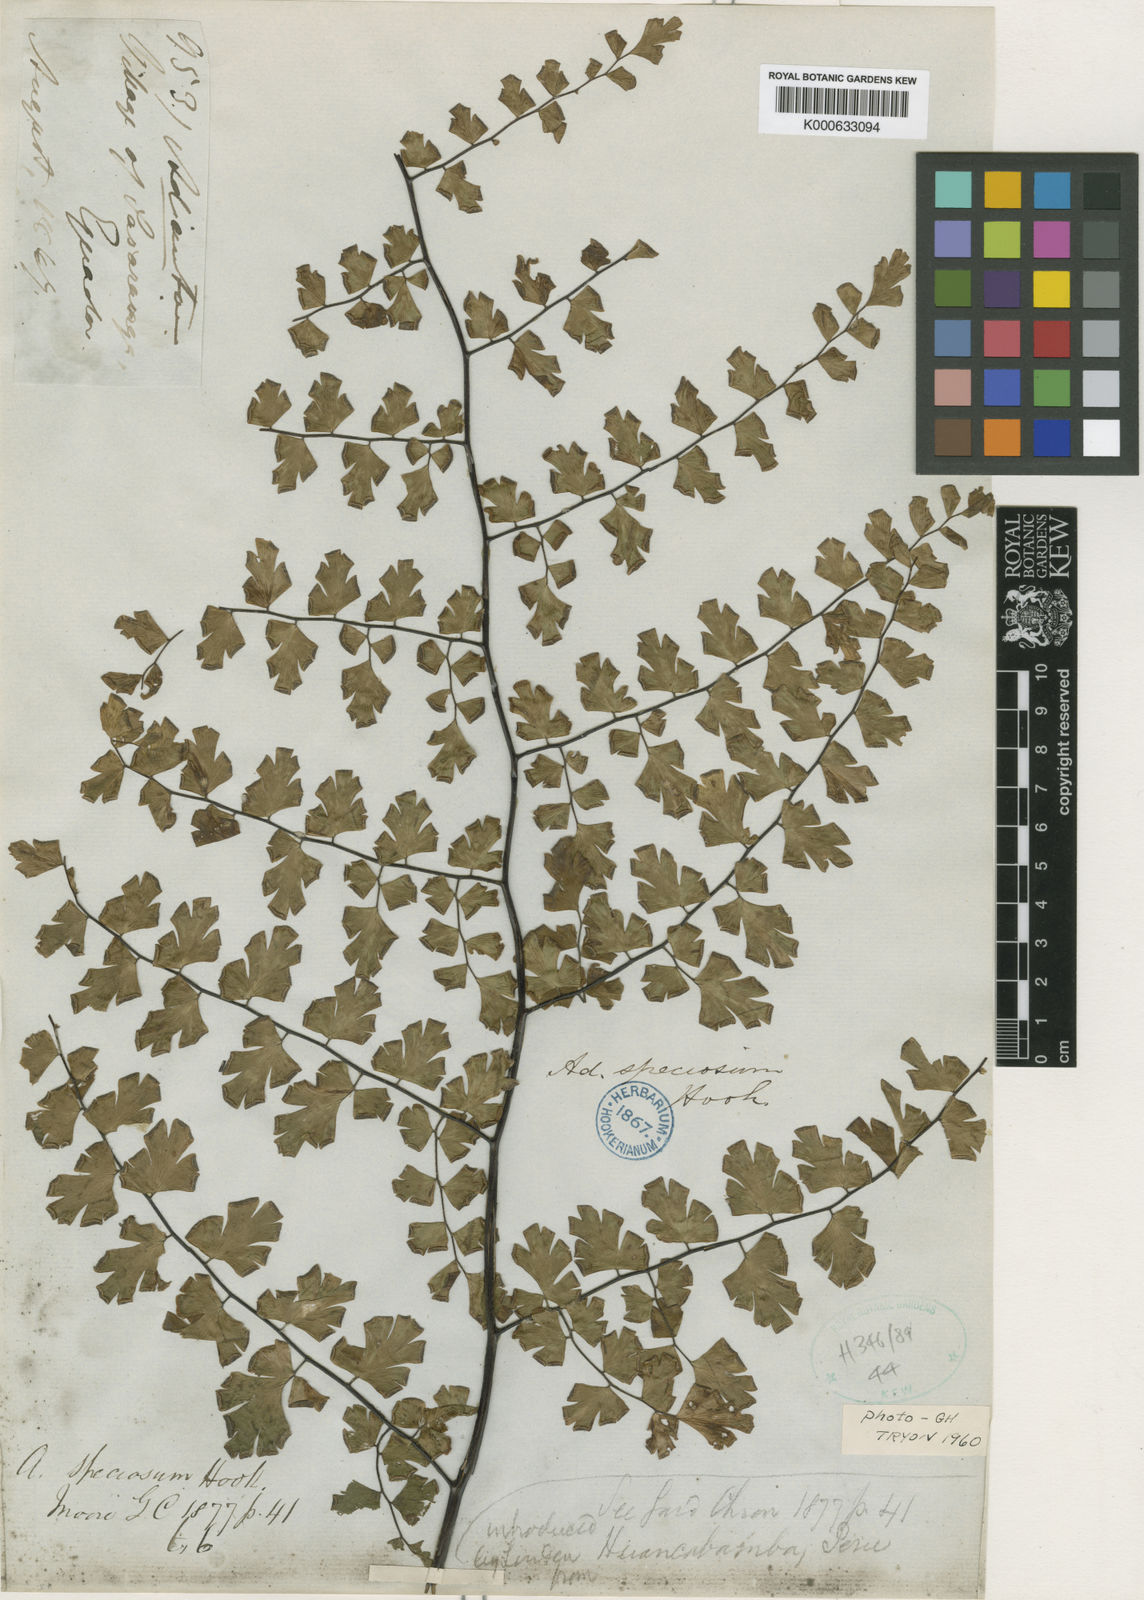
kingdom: Plantae
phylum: Tracheophyta
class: Polypodiopsida
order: Polypodiales
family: Pteridaceae
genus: Adiantum
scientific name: Adiantum
